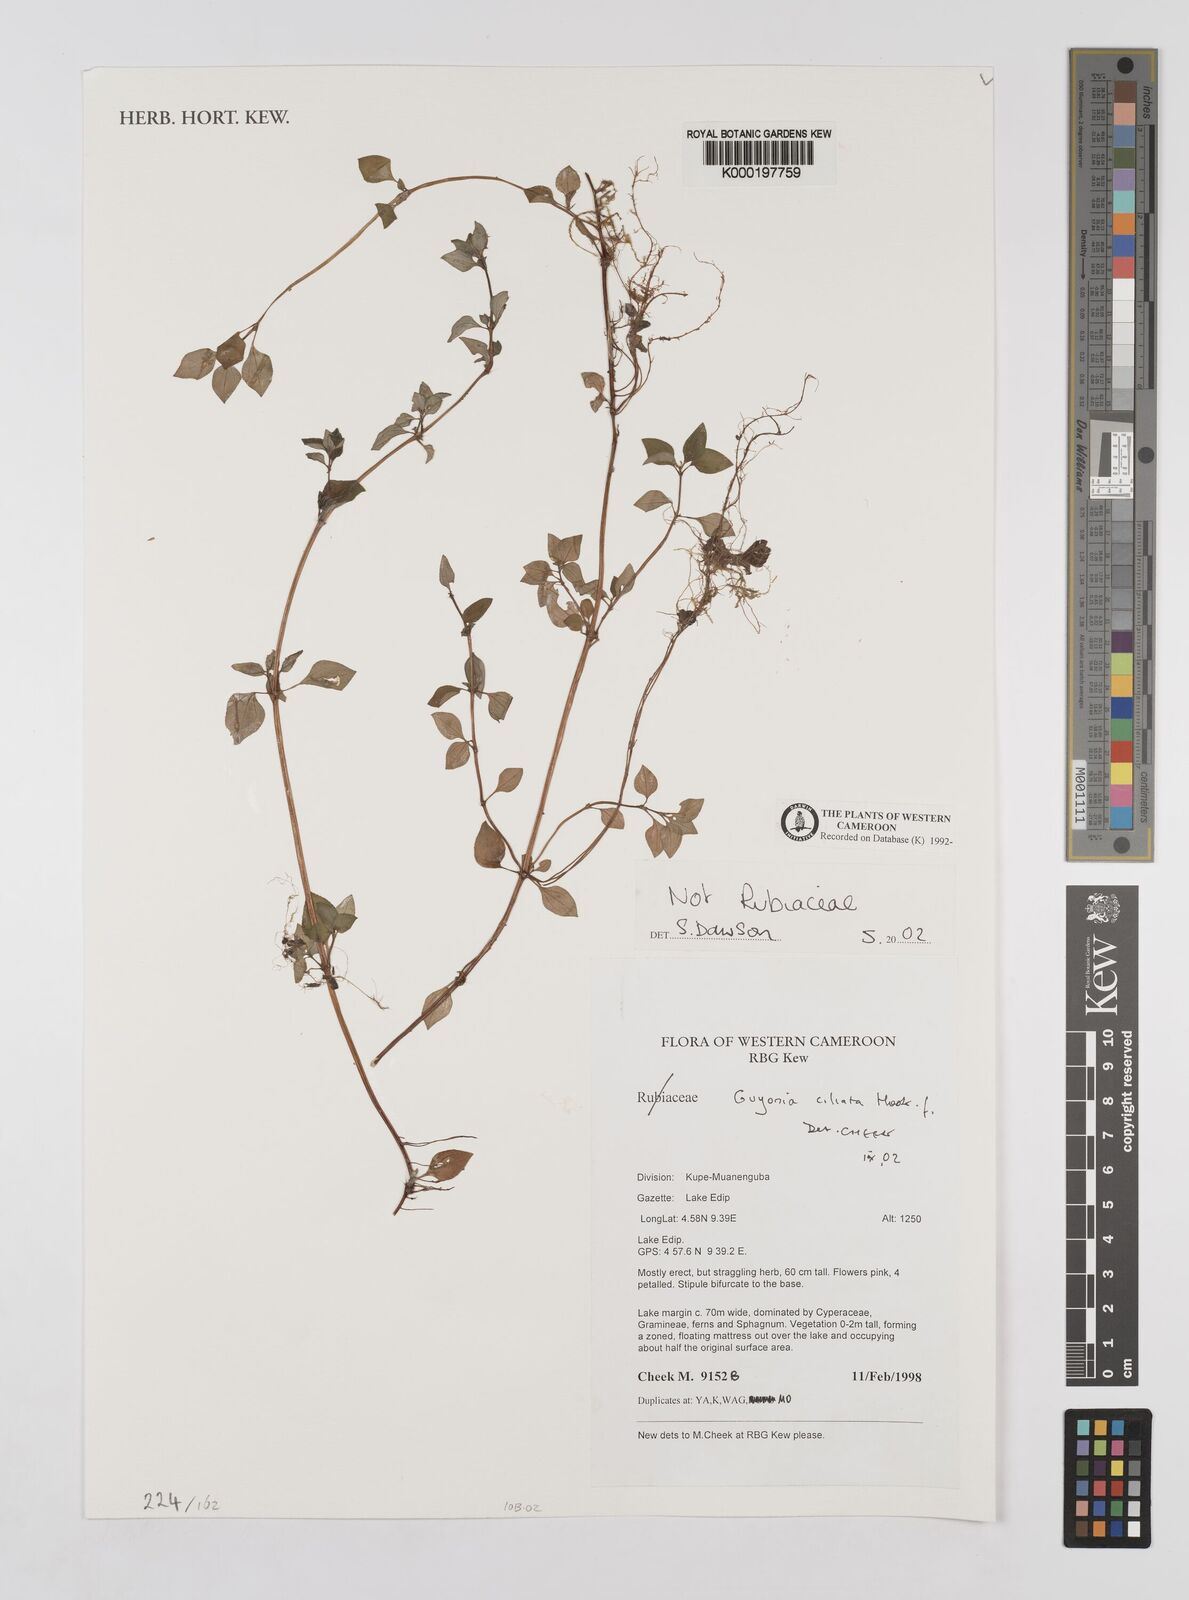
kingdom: Plantae
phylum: Tracheophyta
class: Magnoliopsida
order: Myrtales
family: Melastomataceae
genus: Guyonia
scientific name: Guyonia ciliata
